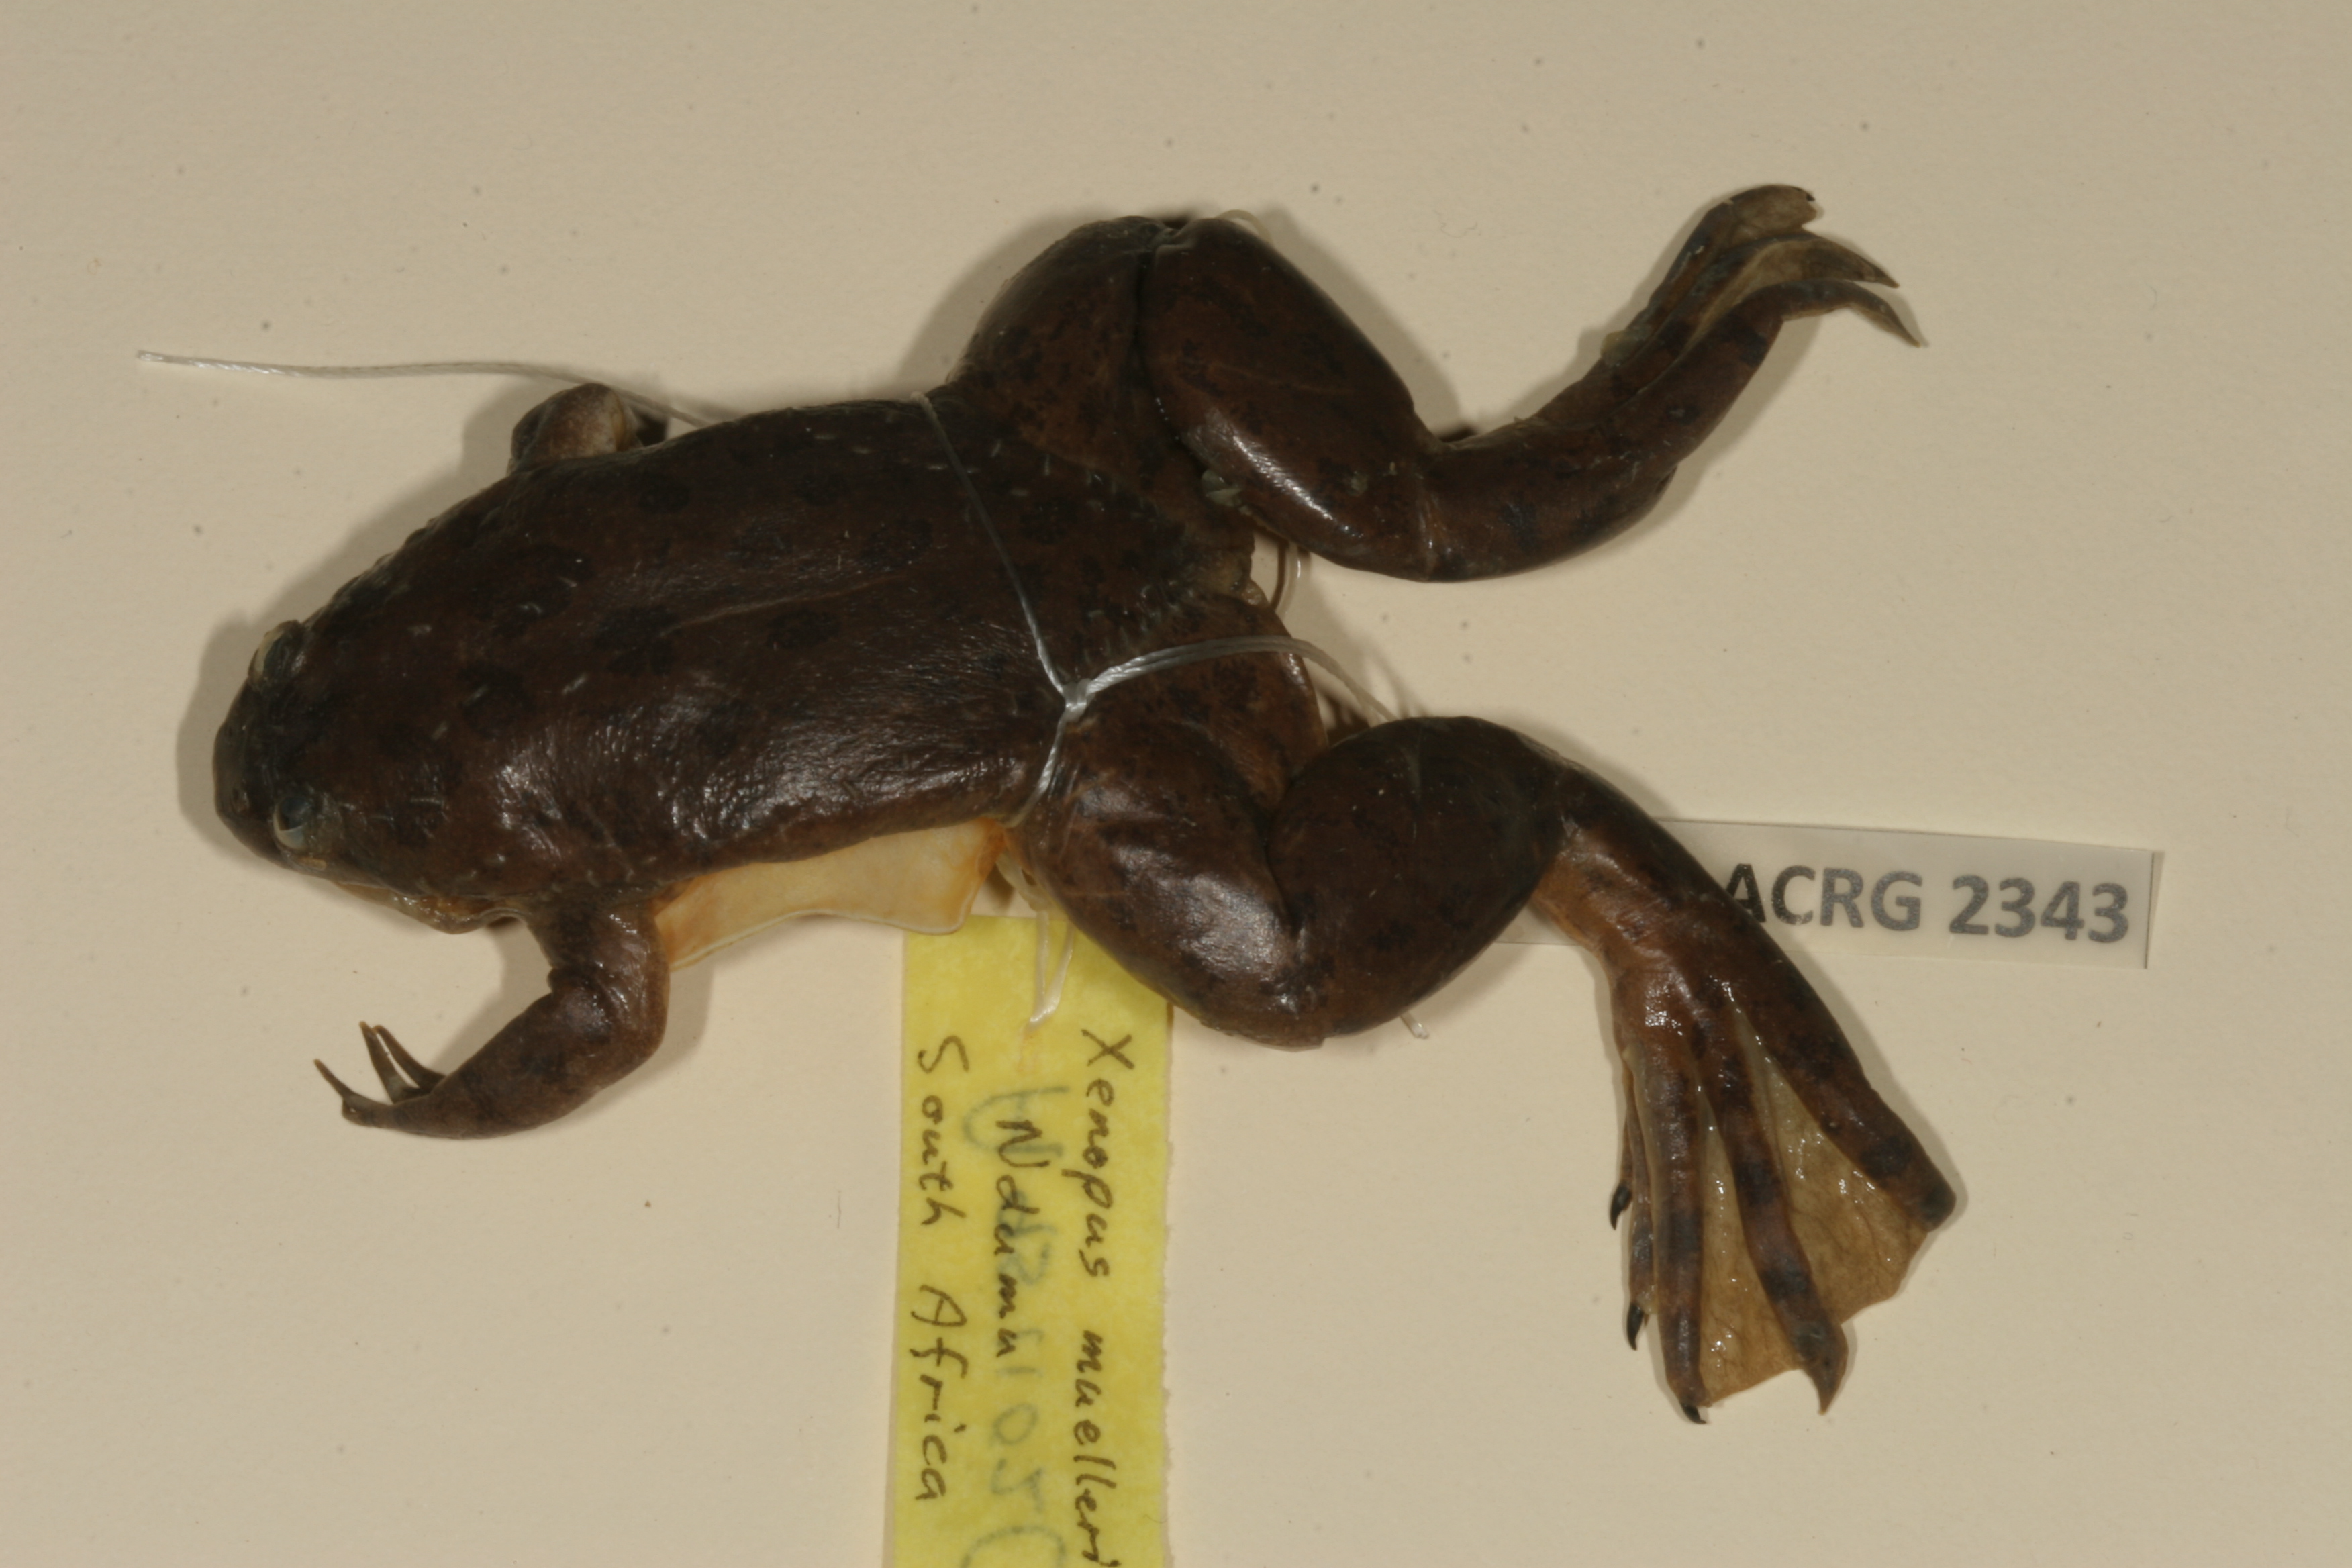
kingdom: Animalia
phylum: Chordata
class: Amphibia
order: Anura
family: Pipidae
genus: Xenopus
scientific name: Xenopus muelleri
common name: Muller's clawed frog
